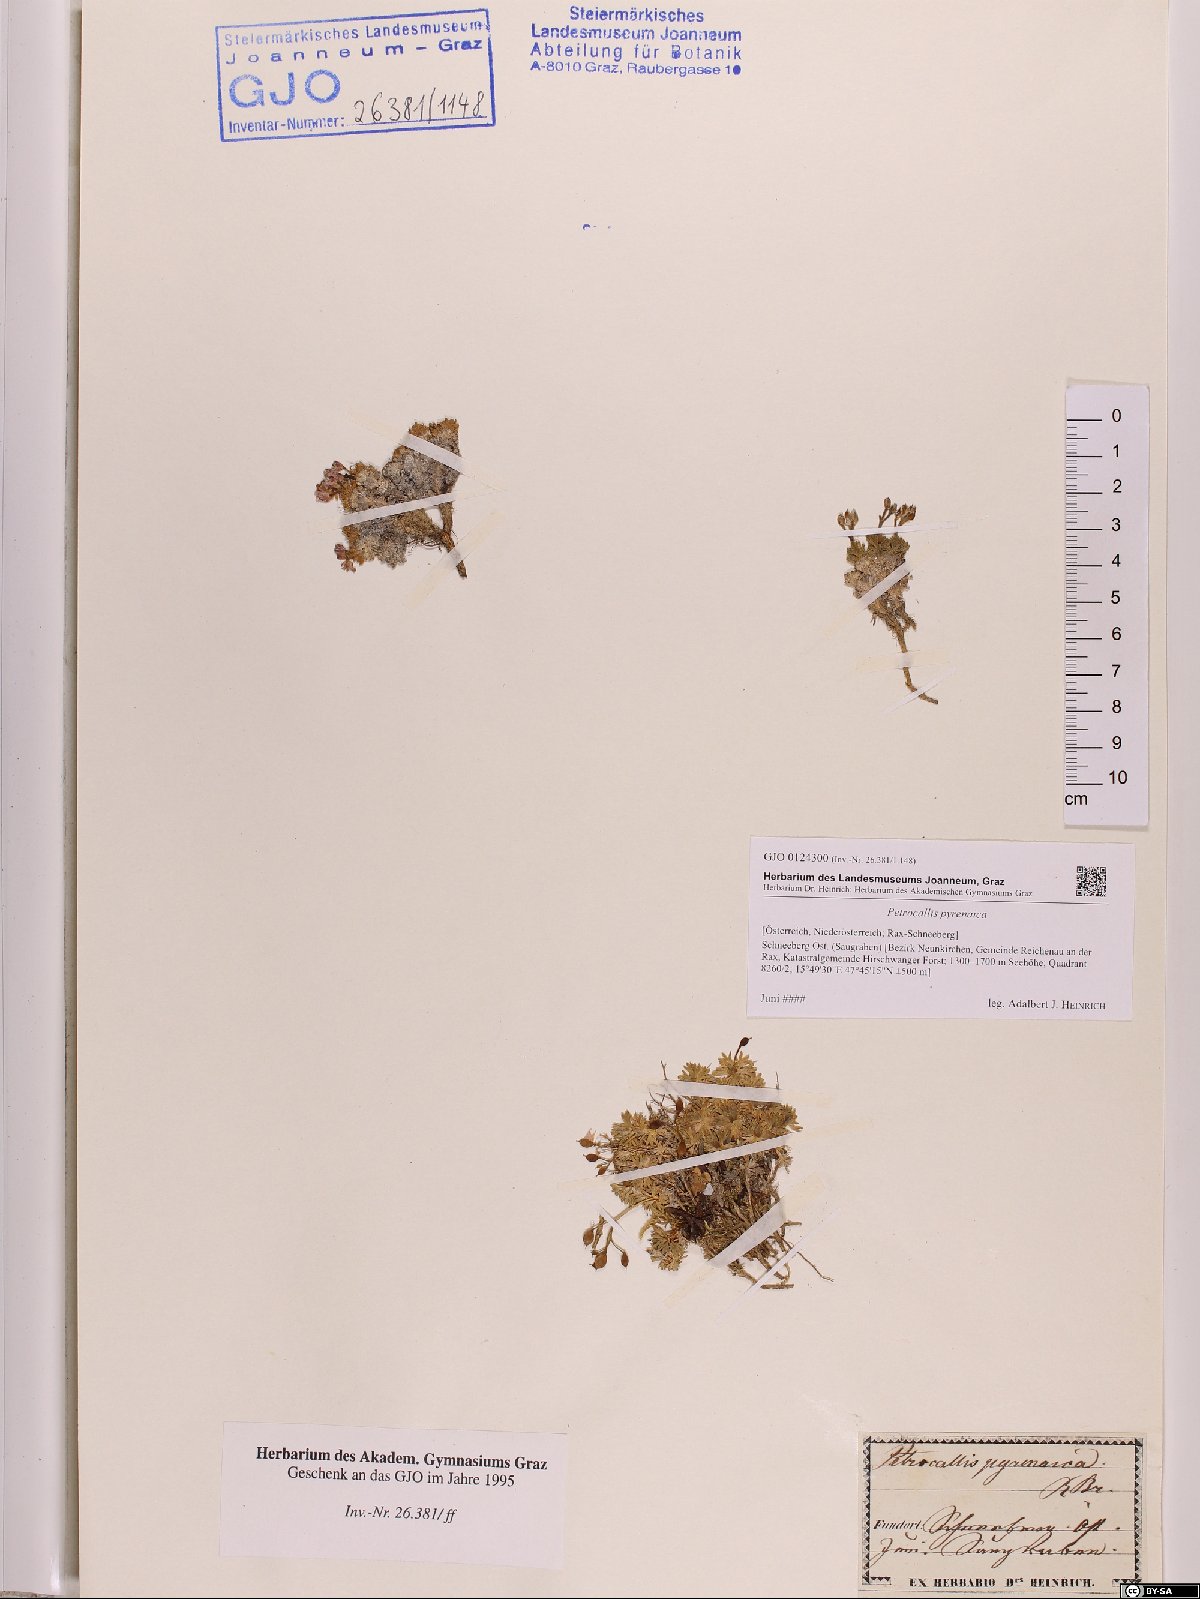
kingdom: Plantae
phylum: Tracheophyta
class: Magnoliopsida
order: Brassicales
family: Brassicaceae
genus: Petrocallis
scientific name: Petrocallis pyrenaica
